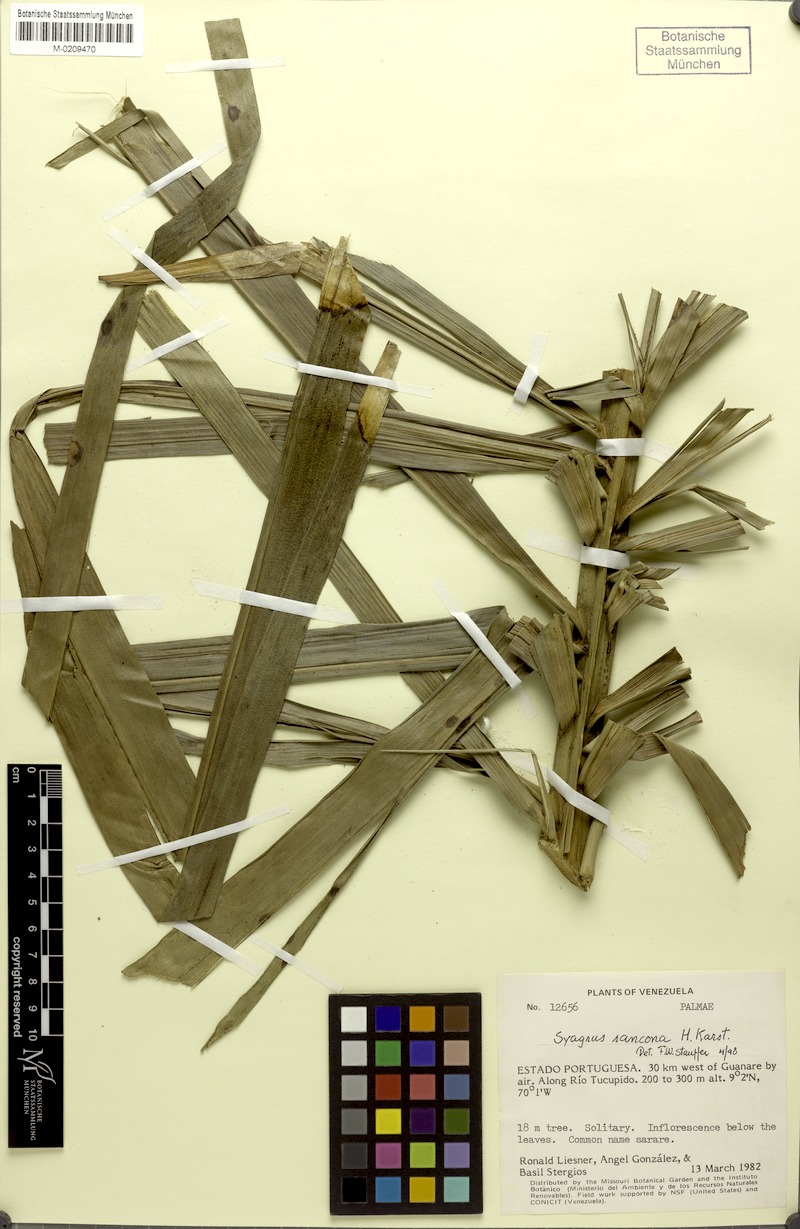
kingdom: Plantae
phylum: Tracheophyta
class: Liliopsida
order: Arecales
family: Arecaceae
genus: Syagrus
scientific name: Syagrus sancona
